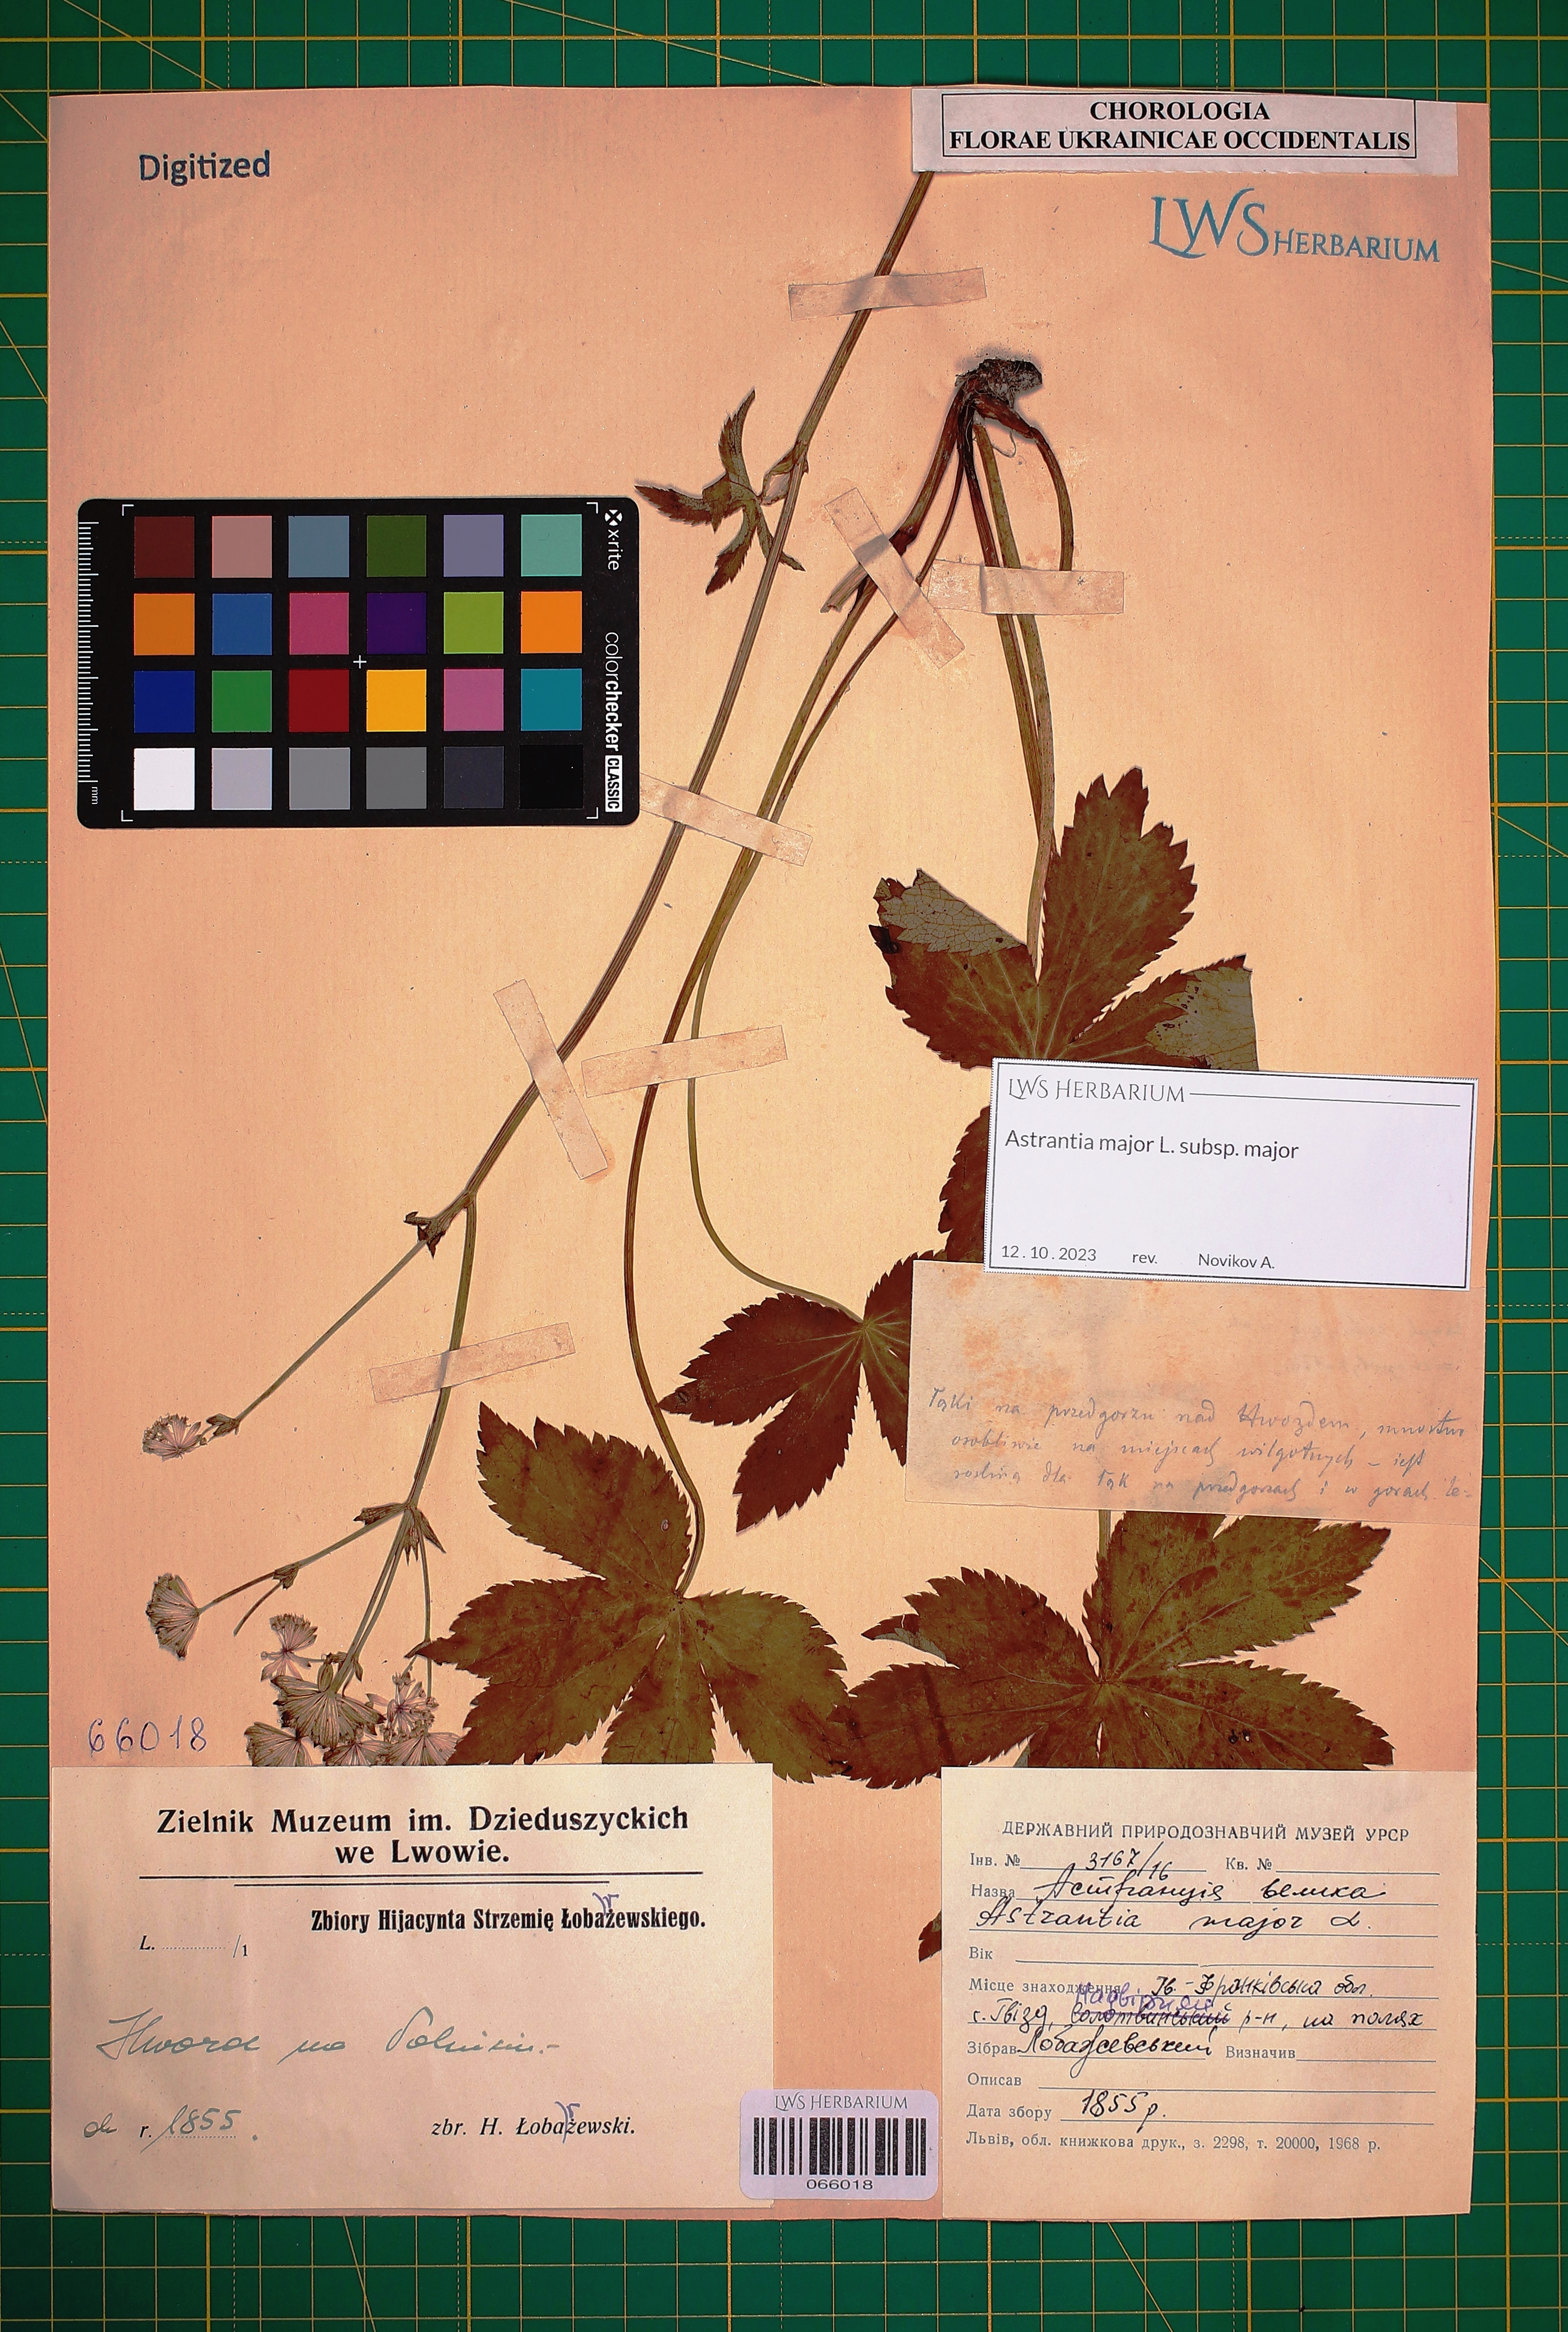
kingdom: Plantae
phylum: Tracheophyta
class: Magnoliopsida
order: Apiales
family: Apiaceae
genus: Astrantia
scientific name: Astrantia major
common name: Greater masterwort
